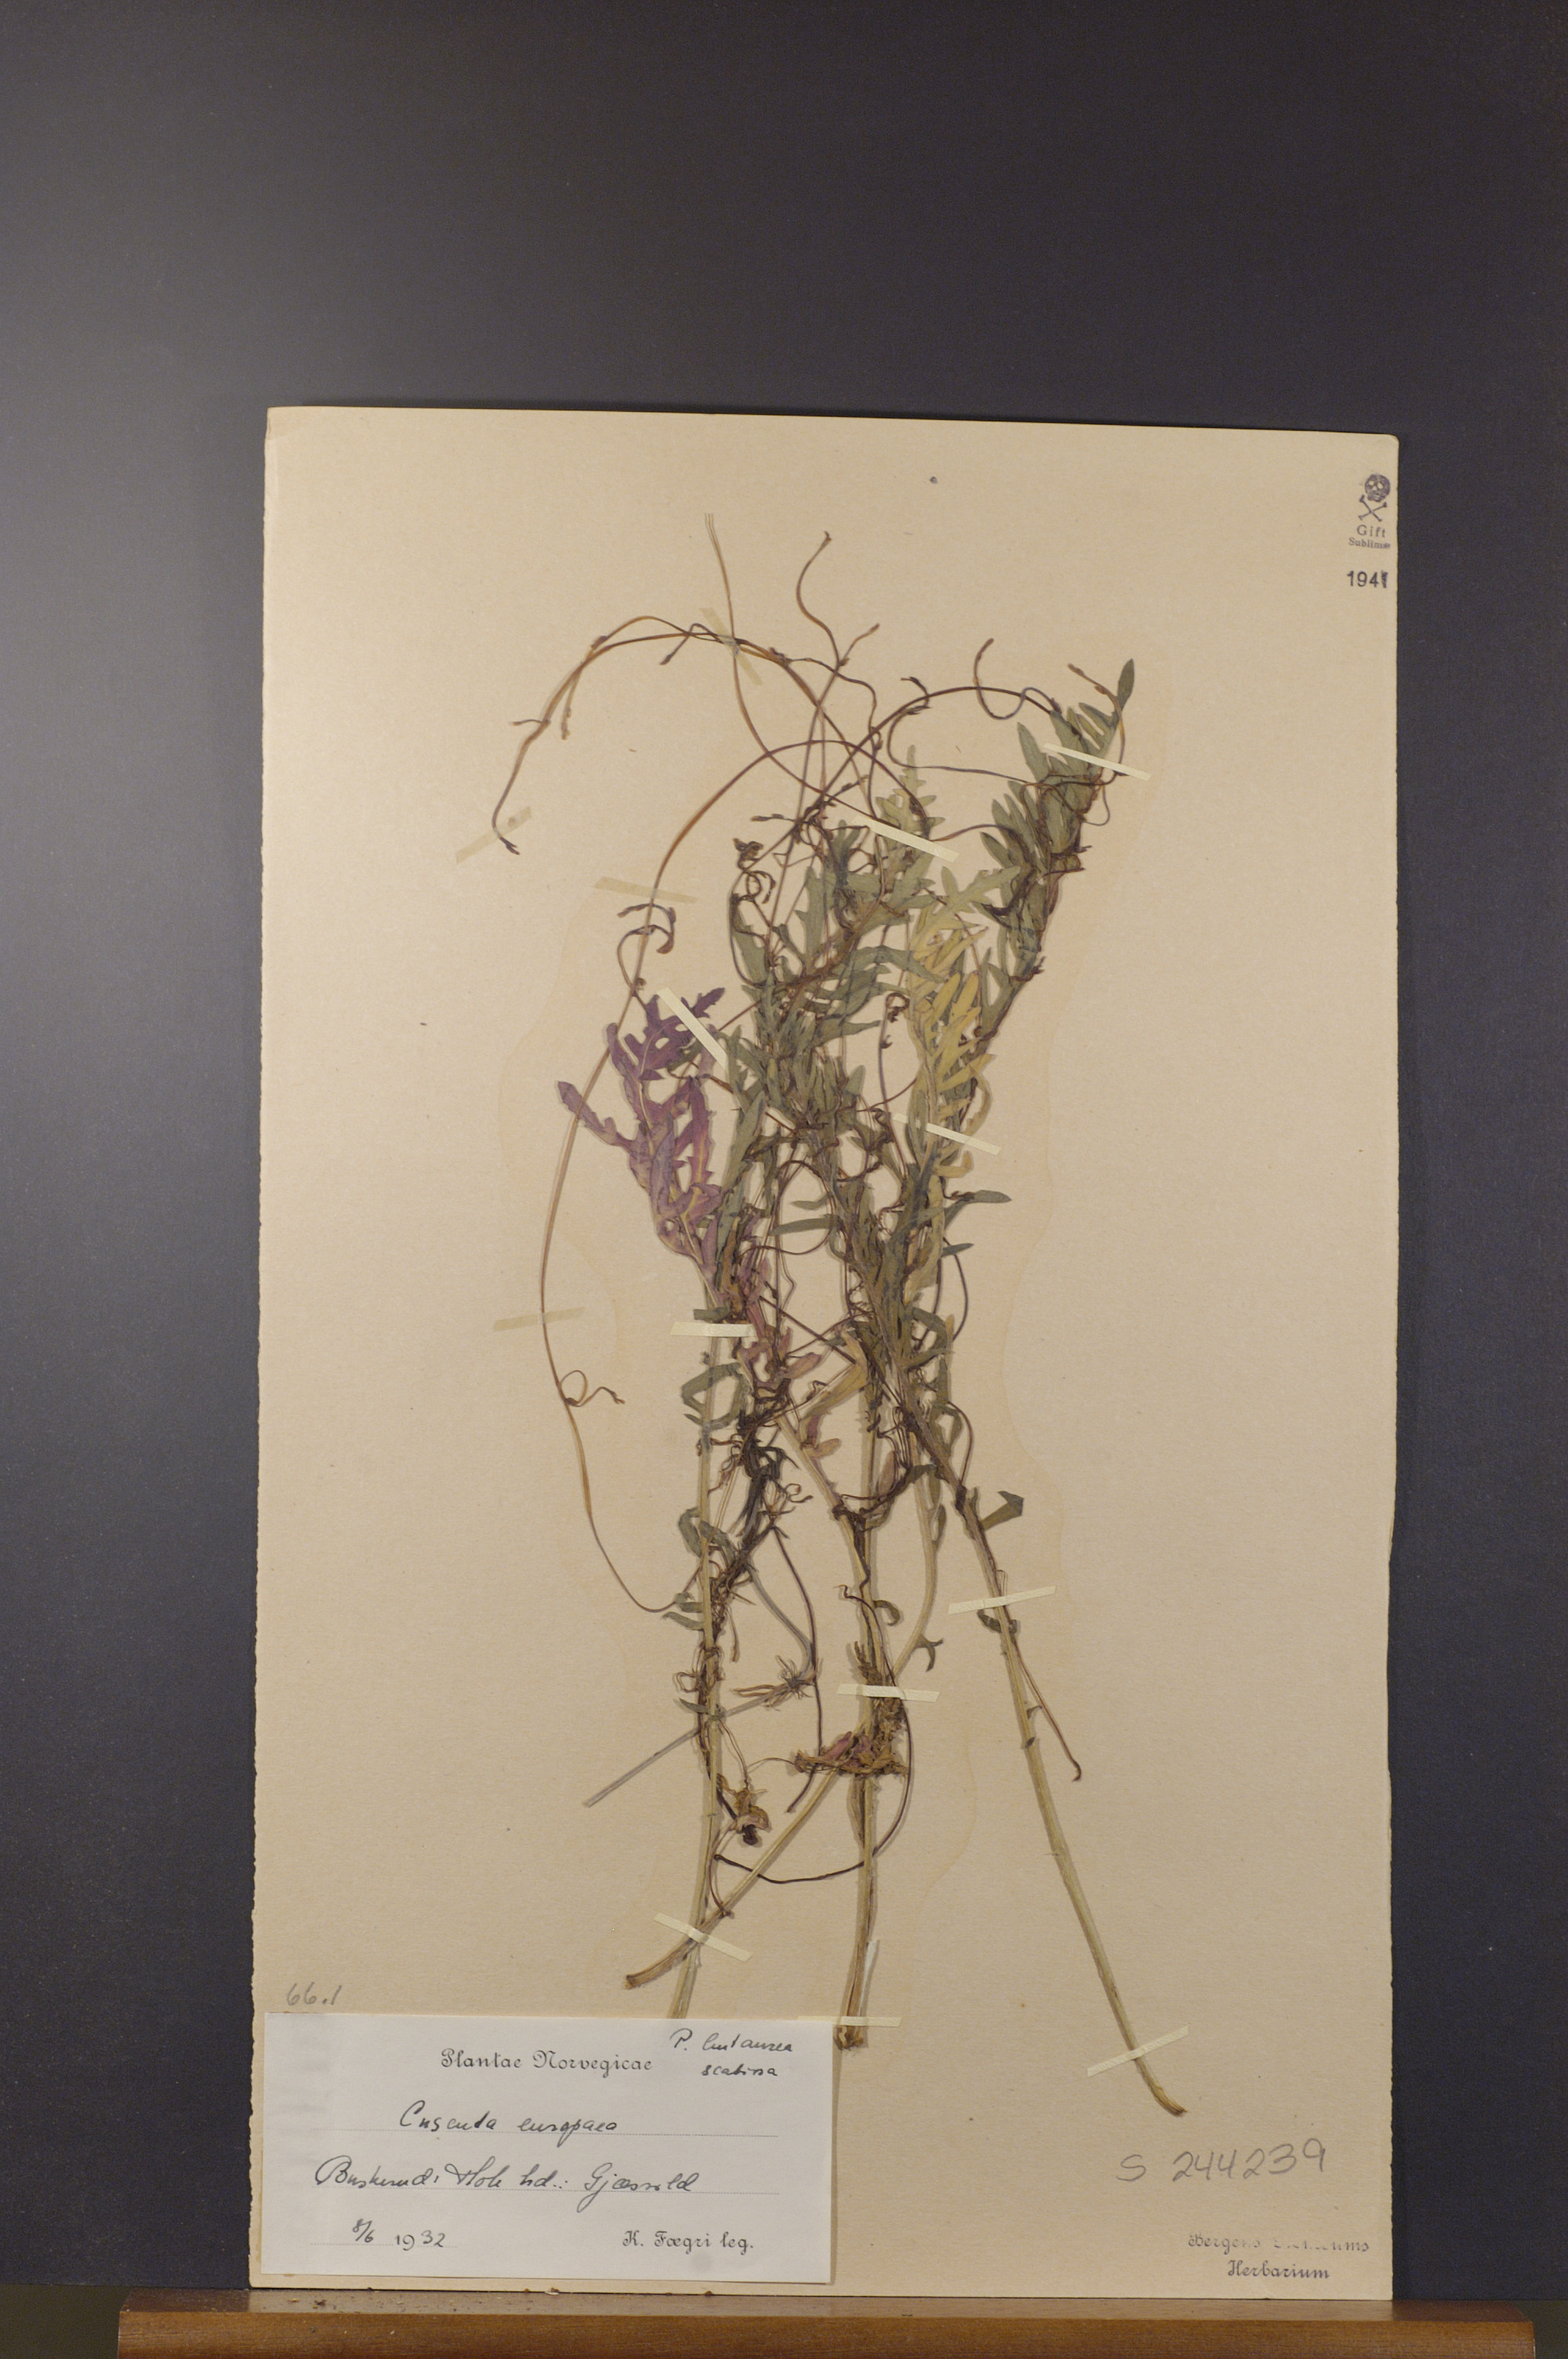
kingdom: Plantae
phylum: Tracheophyta
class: Magnoliopsida
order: Solanales
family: Convolvulaceae
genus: Cuscuta
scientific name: Cuscuta europaea
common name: Greater dodder
